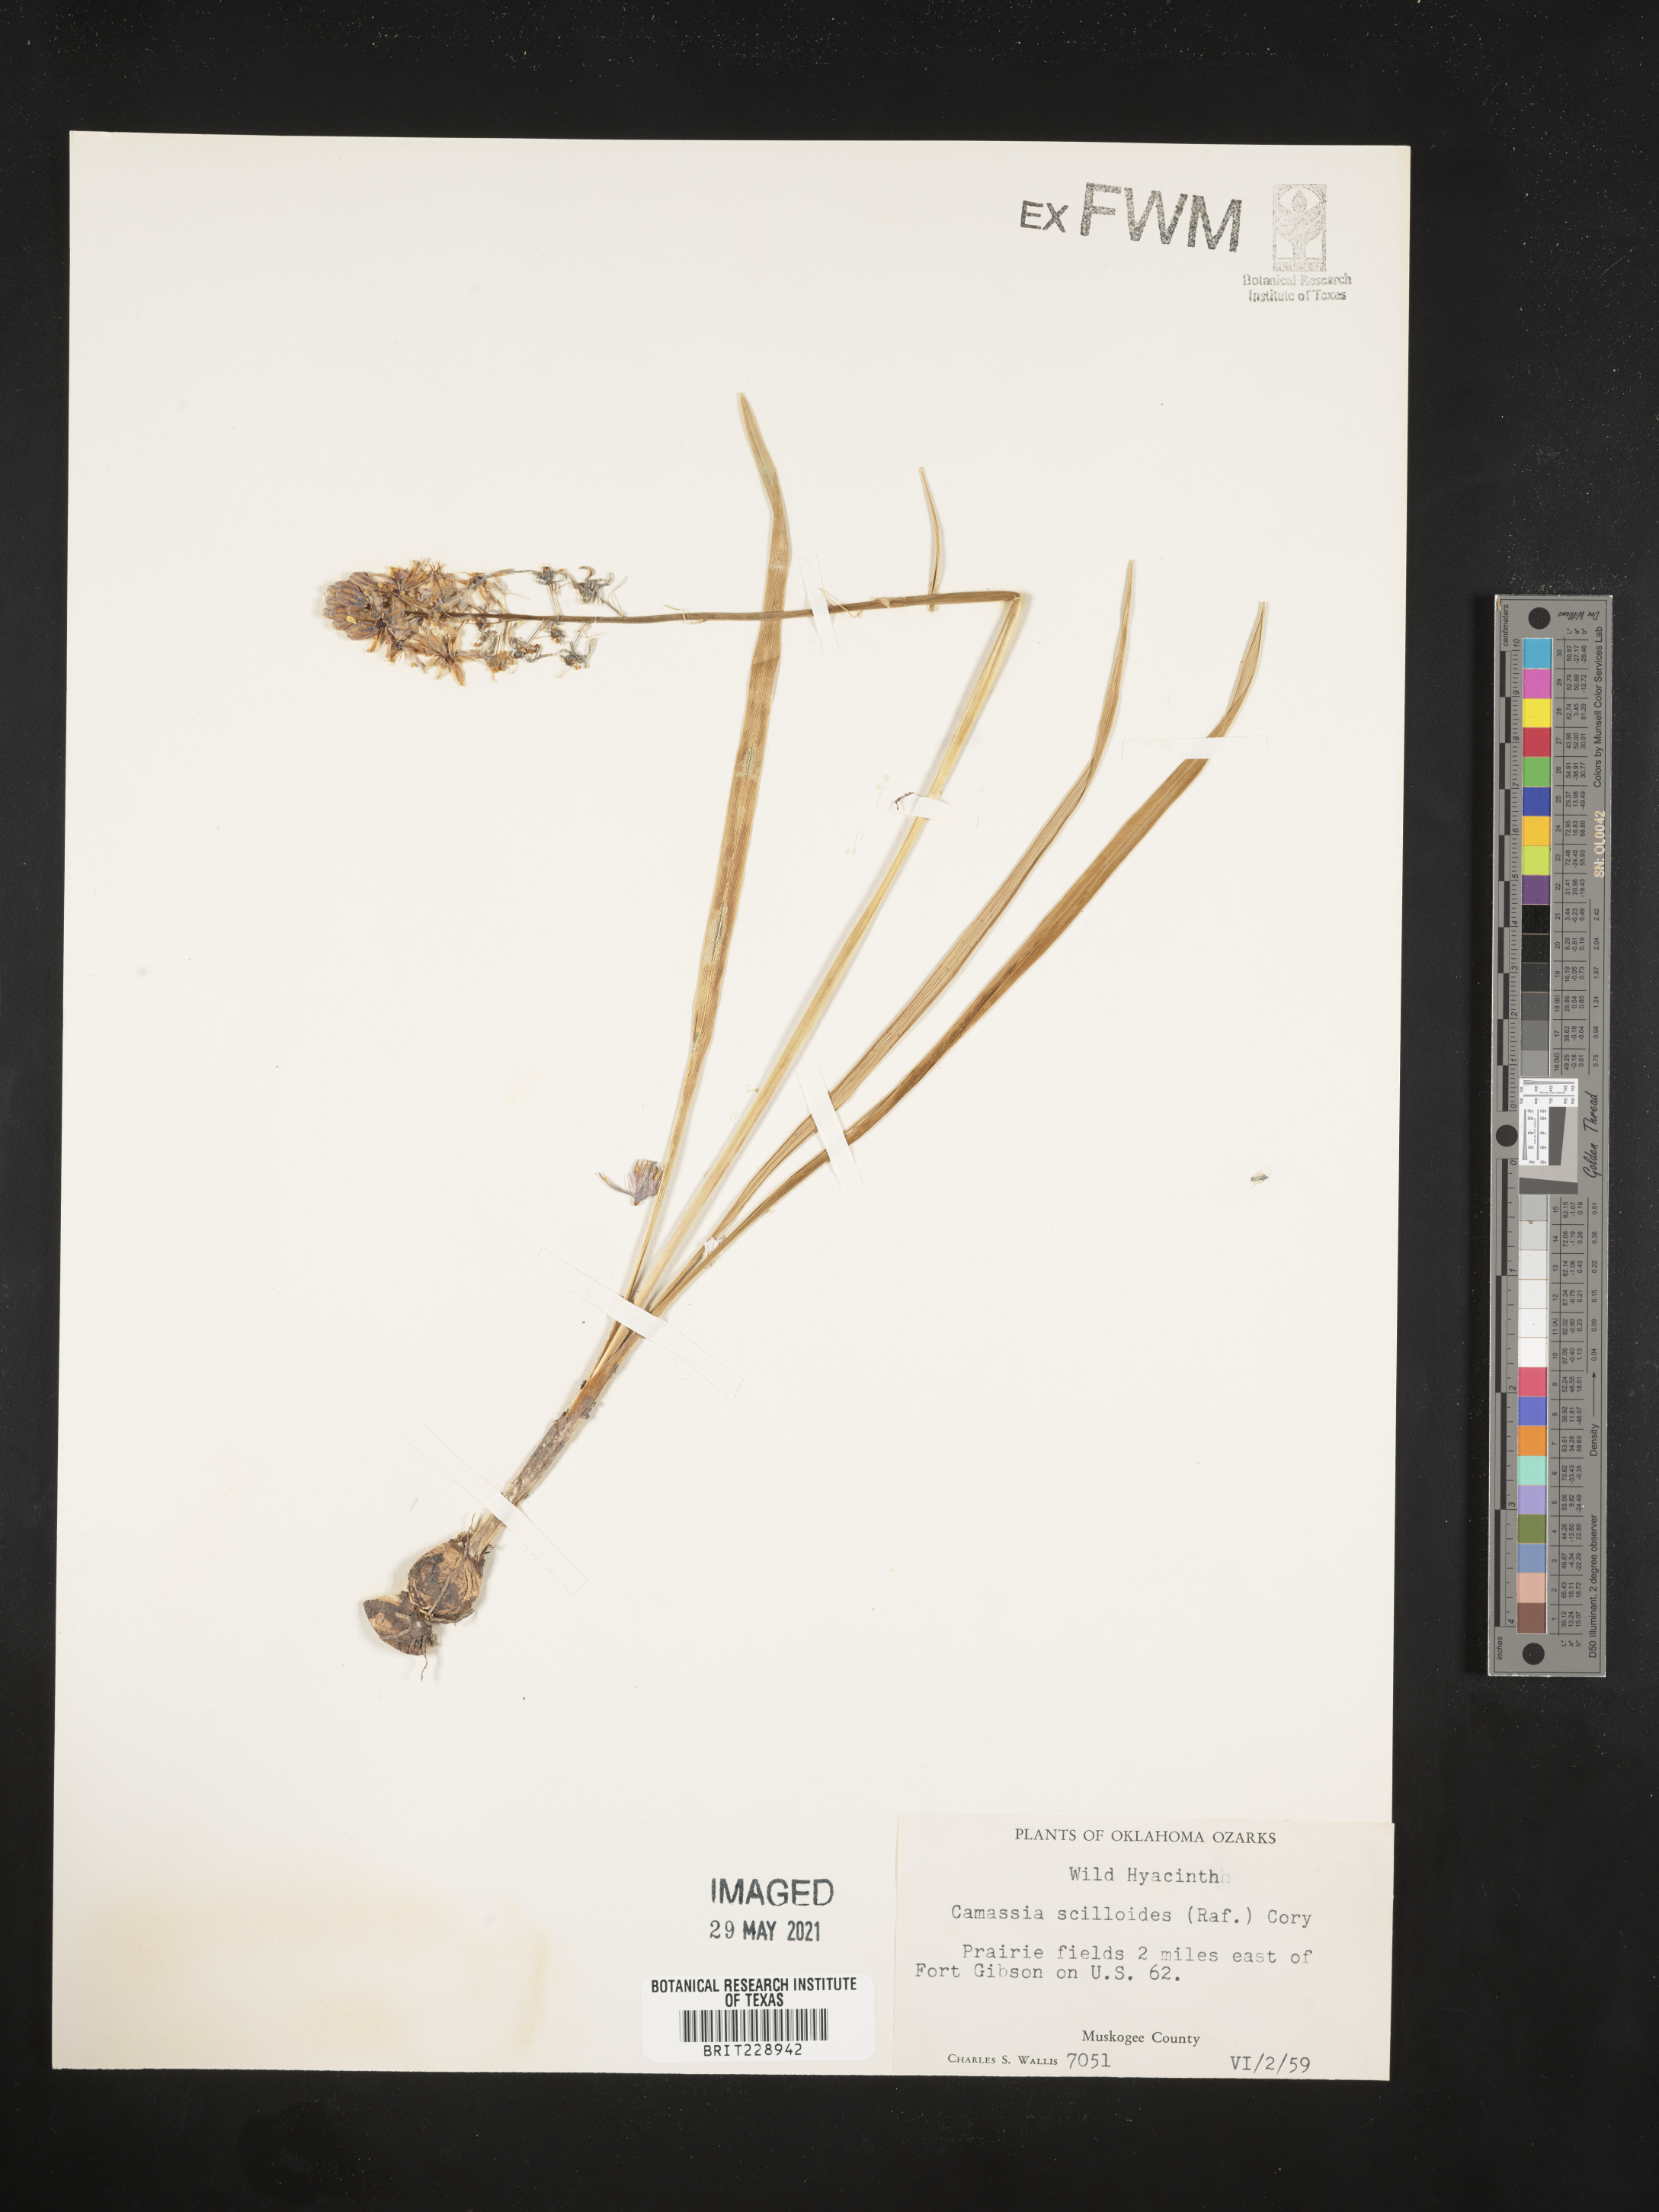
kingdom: Plantae
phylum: Tracheophyta
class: Liliopsida
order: Asparagales
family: Asparagaceae
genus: Camassia
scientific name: Camassia scilloides
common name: Wild hyacinth
